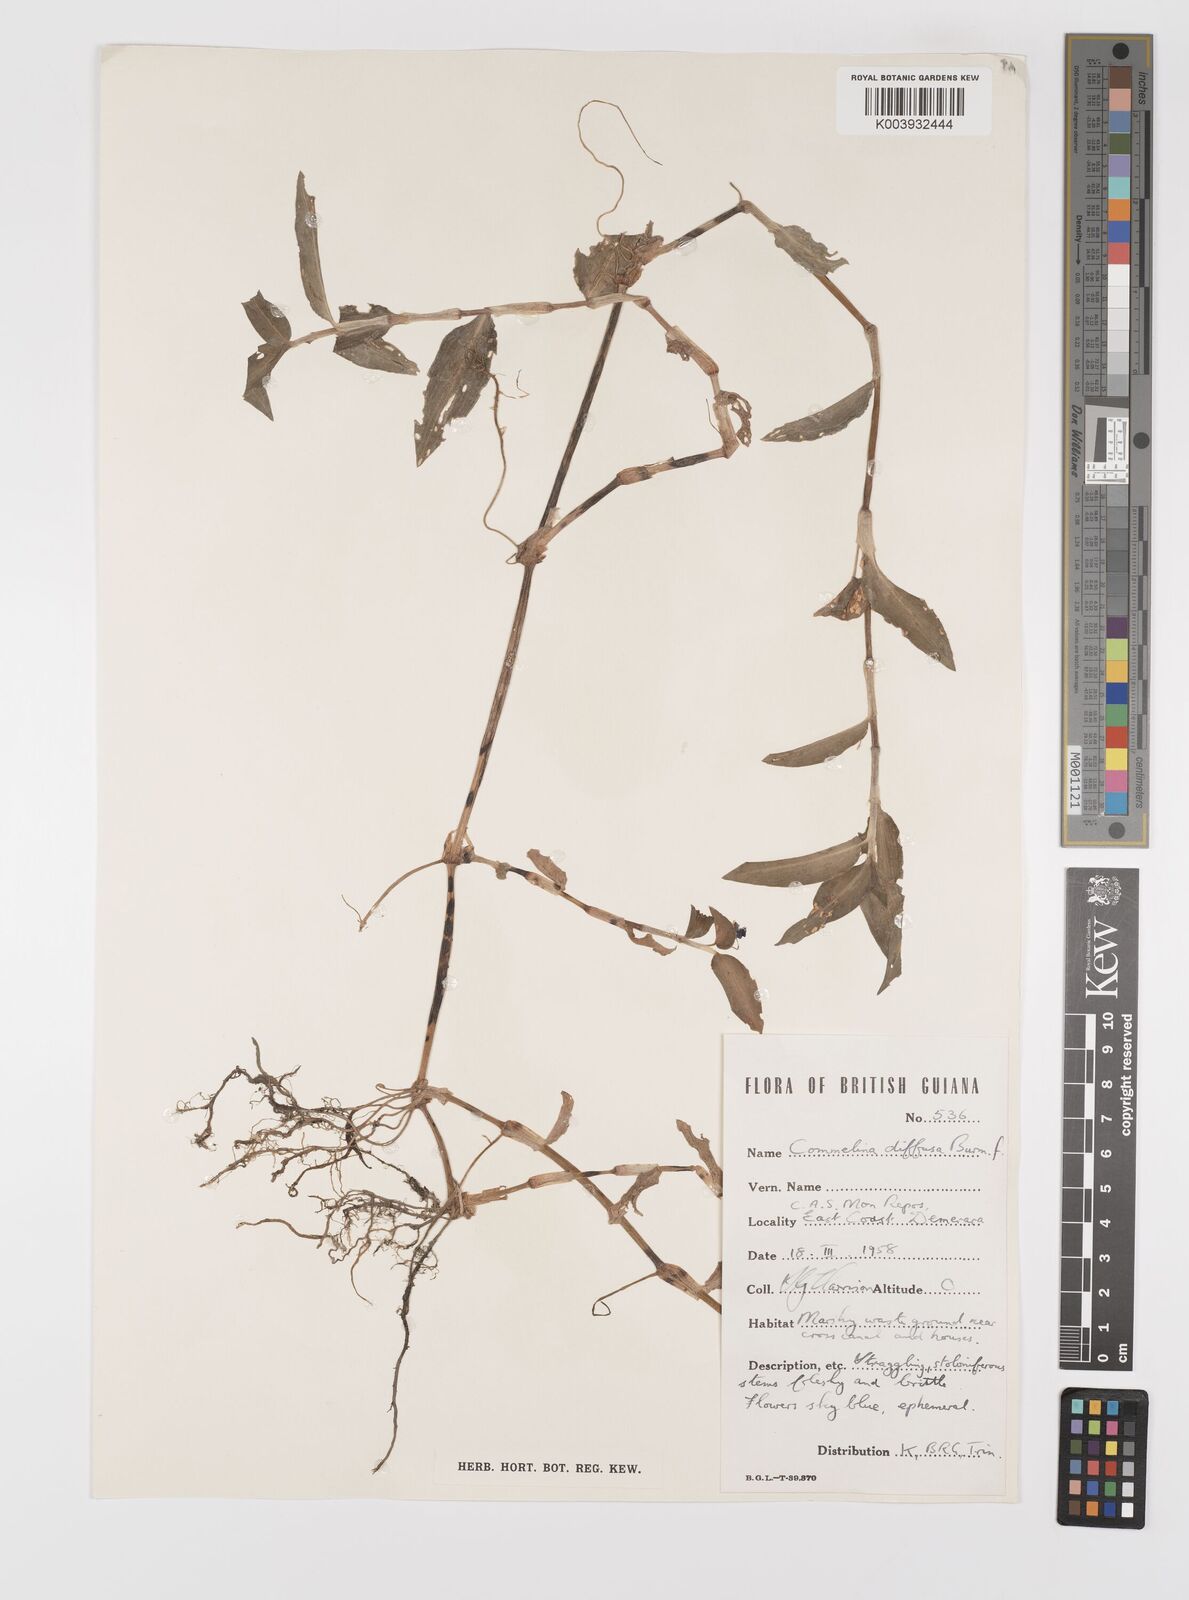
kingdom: Plantae
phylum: Tracheophyta
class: Liliopsida
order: Commelinales
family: Commelinaceae
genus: Commelina
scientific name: Commelina diffusa
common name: Climbing dayflower
